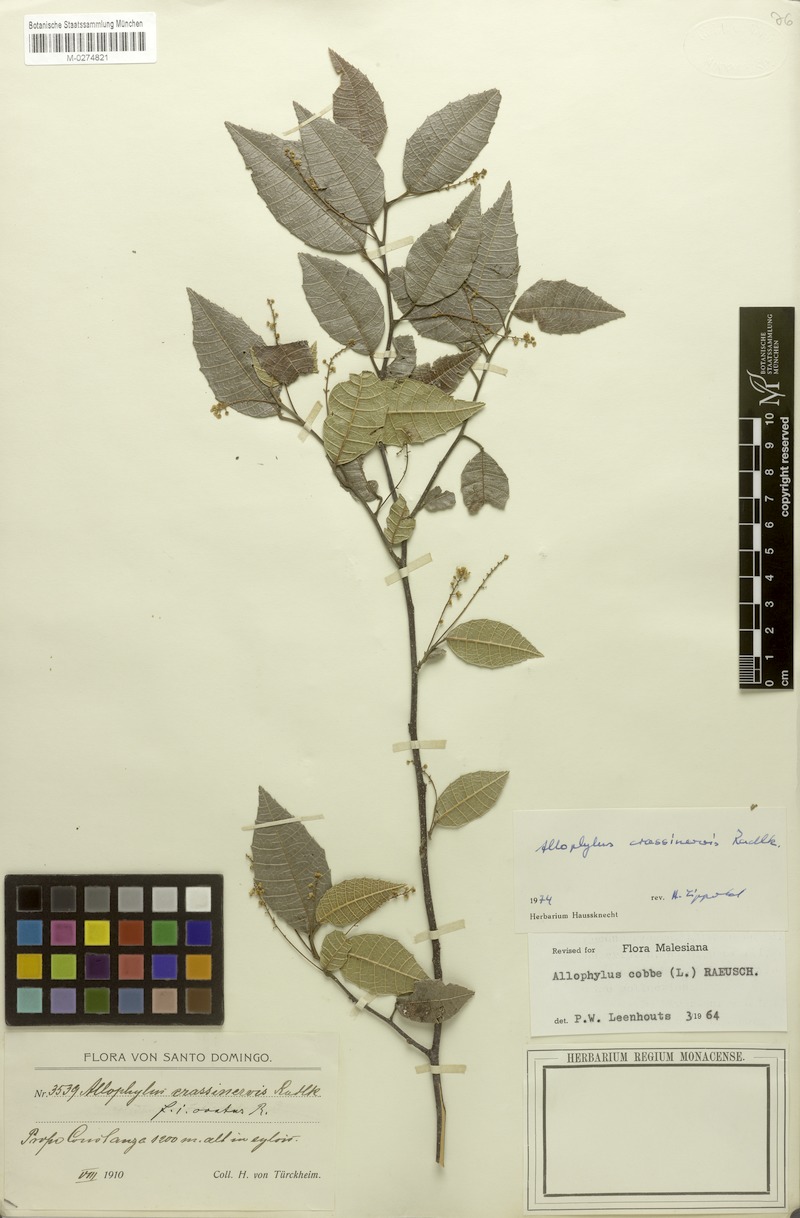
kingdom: Plantae
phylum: Tracheophyta
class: Magnoliopsida
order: Sapindales
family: Sapindaceae
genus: Allophylus
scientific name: Allophylus crassinervis
